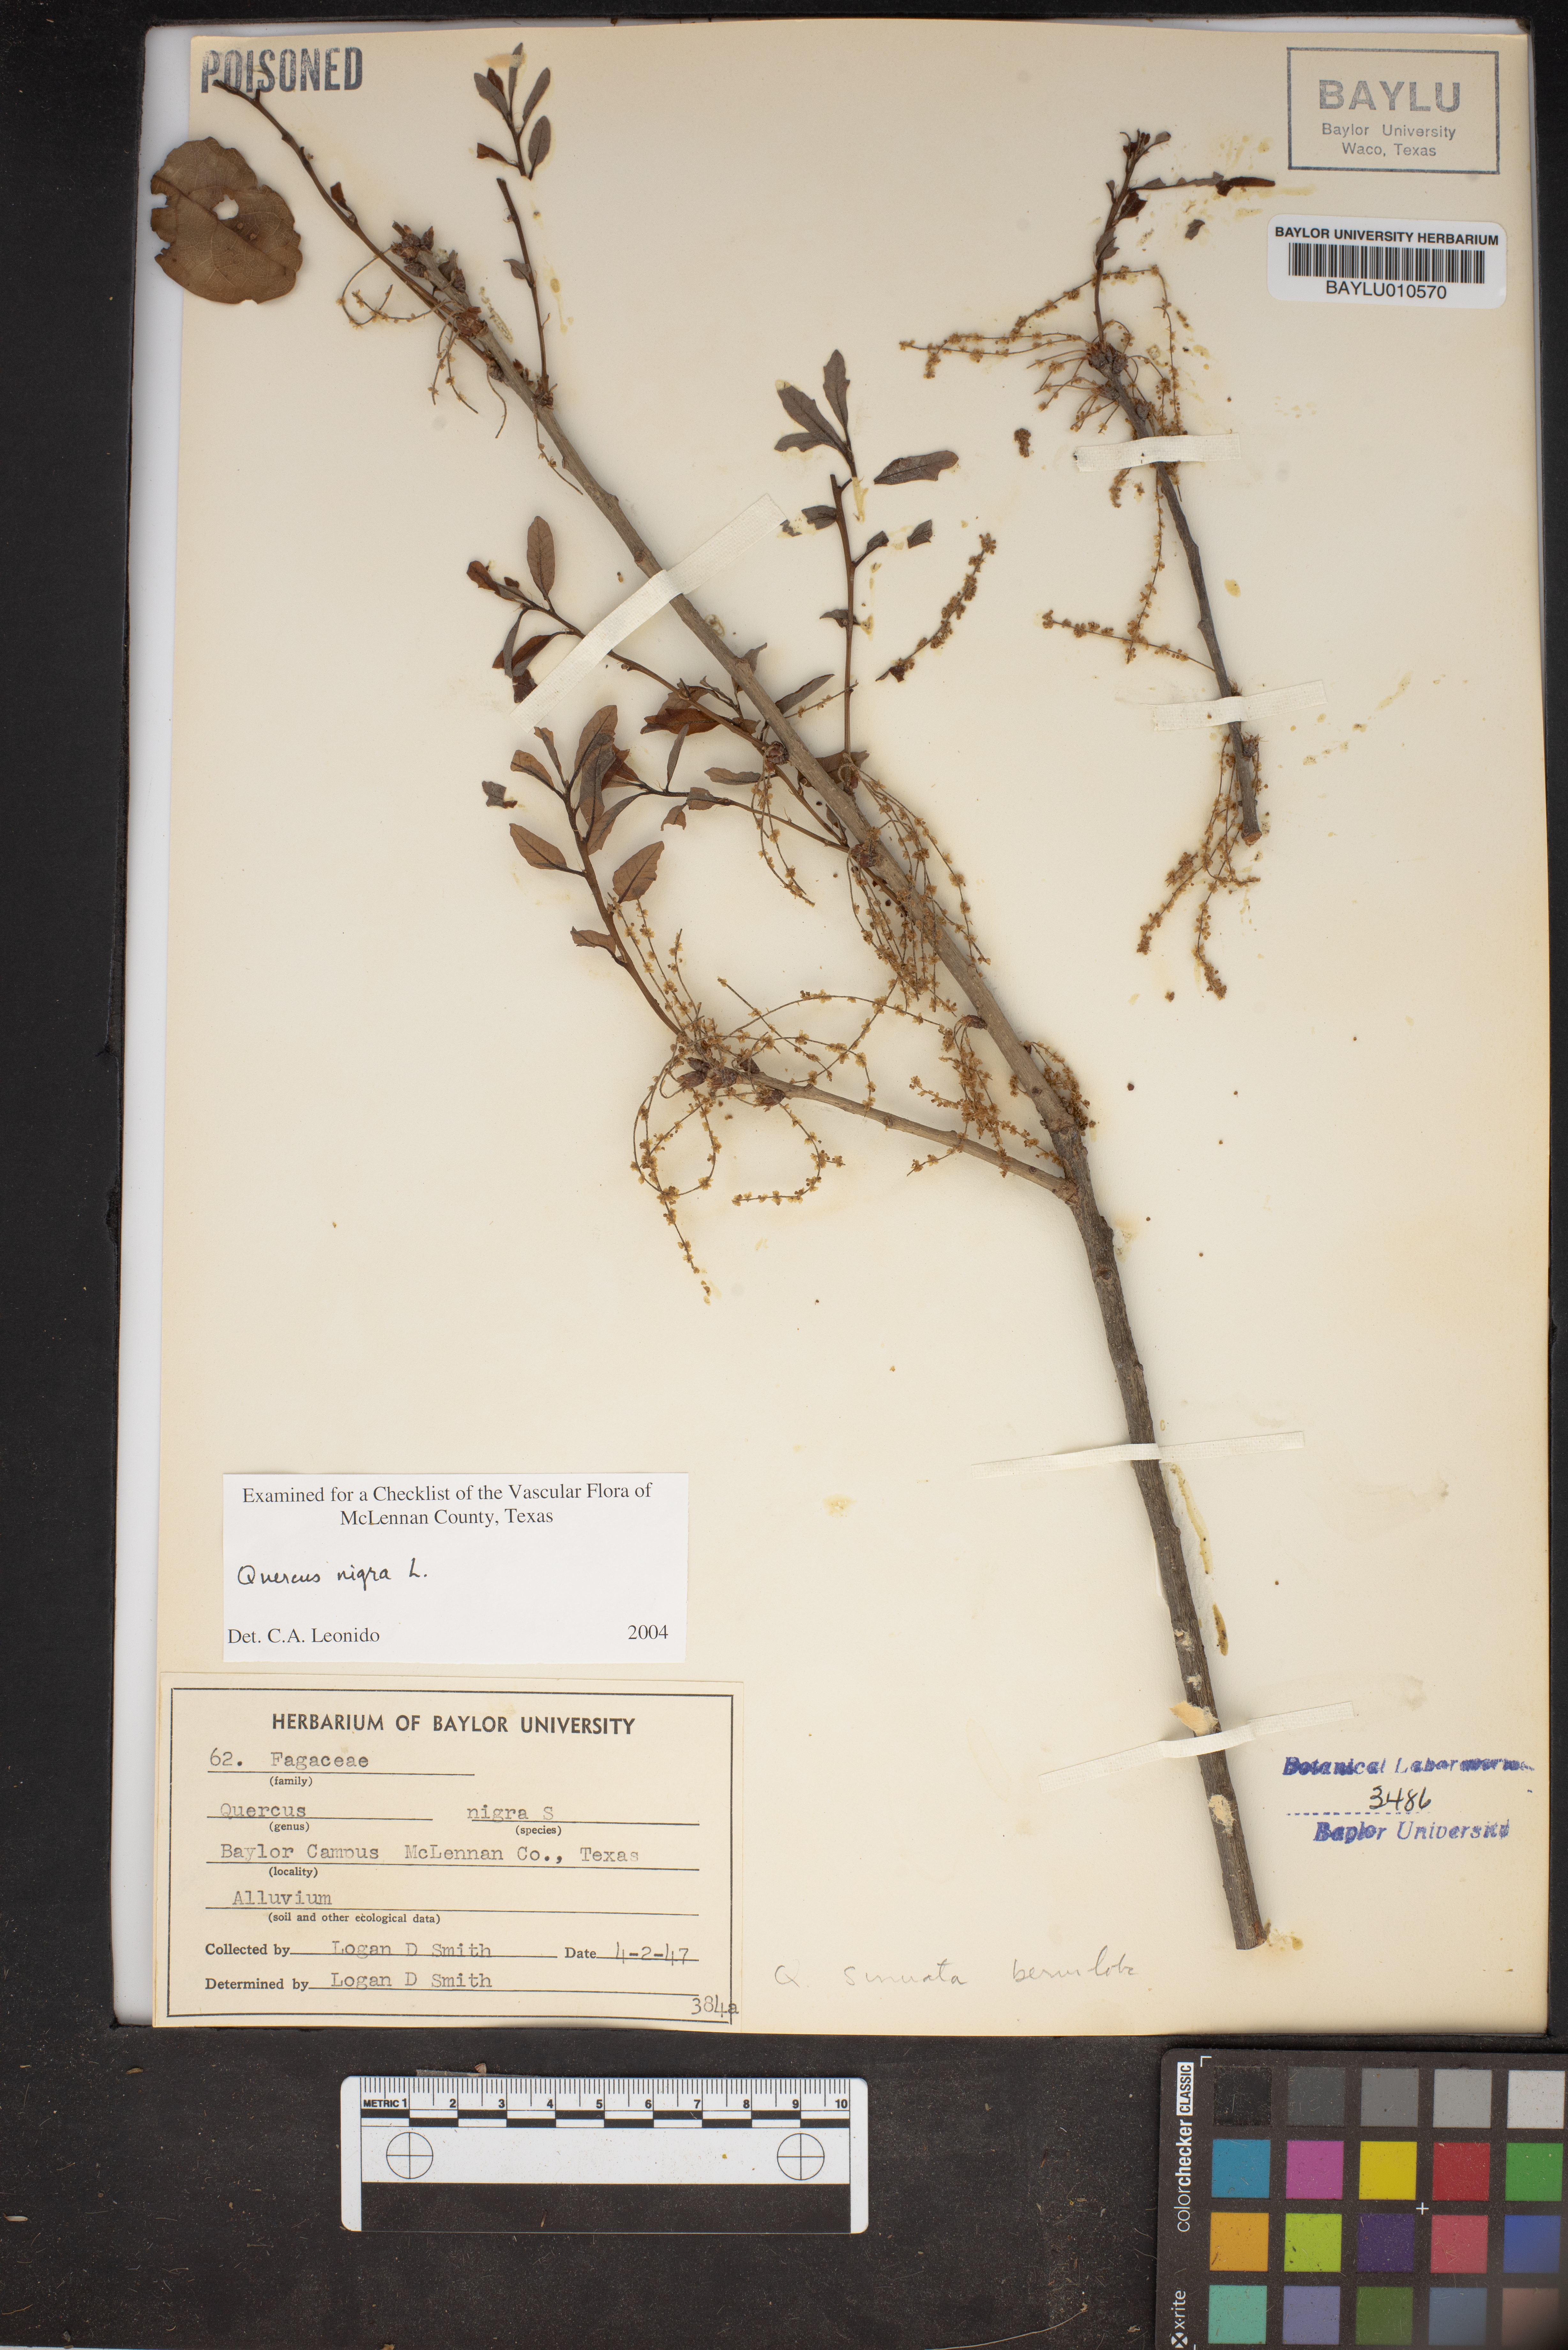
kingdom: Plantae
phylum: Tracheophyta
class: Magnoliopsida
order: Fagales
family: Fagaceae
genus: Quercus
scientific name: Quercus nigra
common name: Water oak
